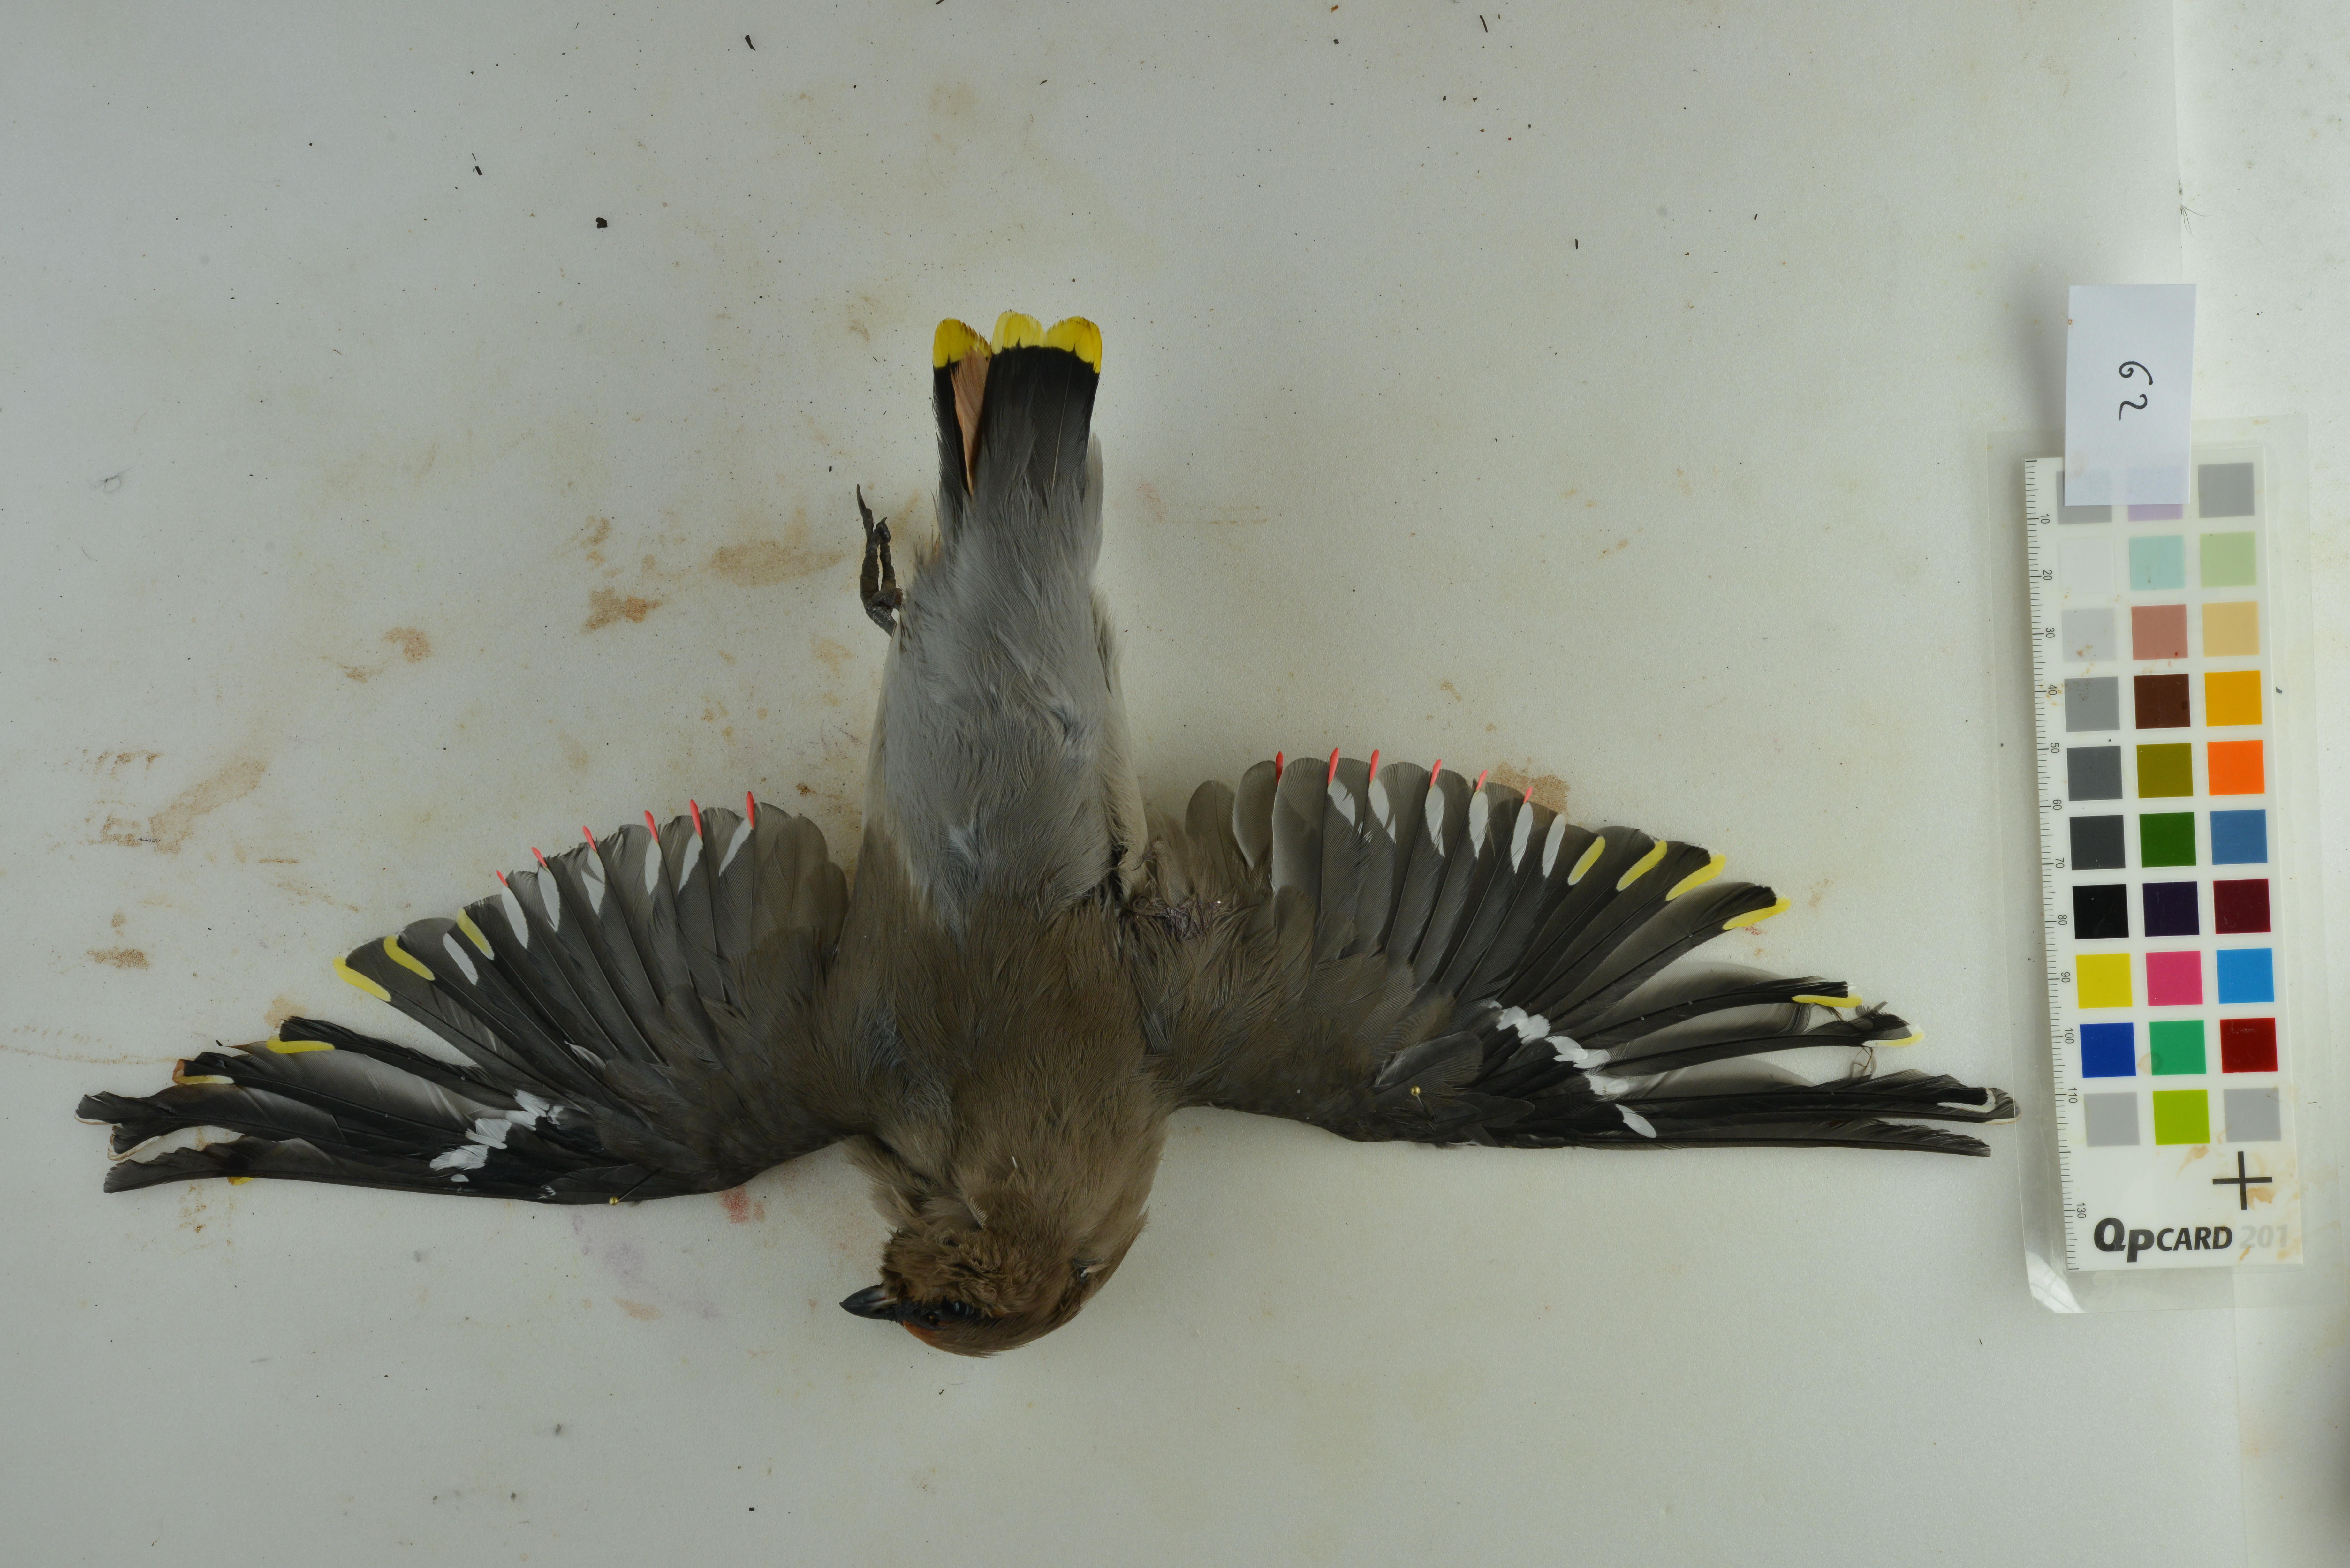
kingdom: Animalia
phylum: Chordata
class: Aves
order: Passeriformes
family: Bombycillidae
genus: Bombycilla
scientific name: Bombycilla garrulus
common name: Bohemian waxwing
